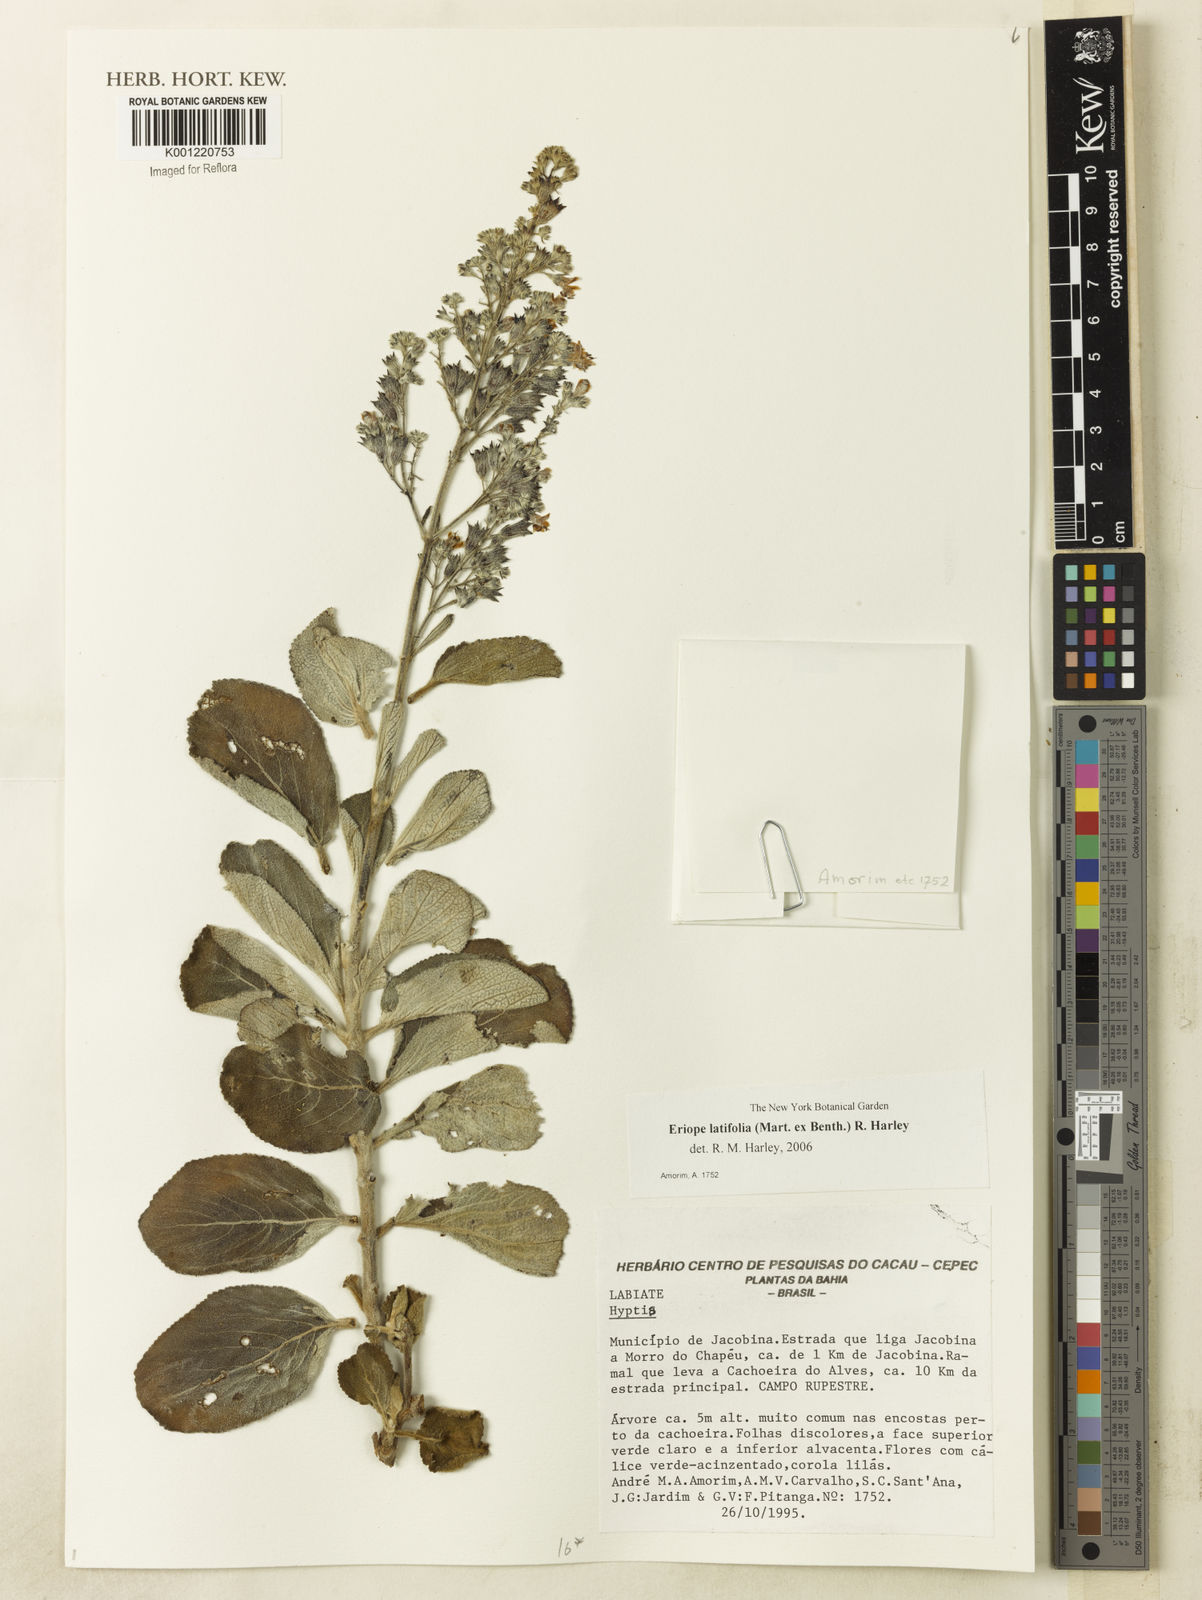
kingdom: Plantae
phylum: Tracheophyta
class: Magnoliopsida
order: Lamiales
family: Lamiaceae
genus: Eriope
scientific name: Eriope latifolia
